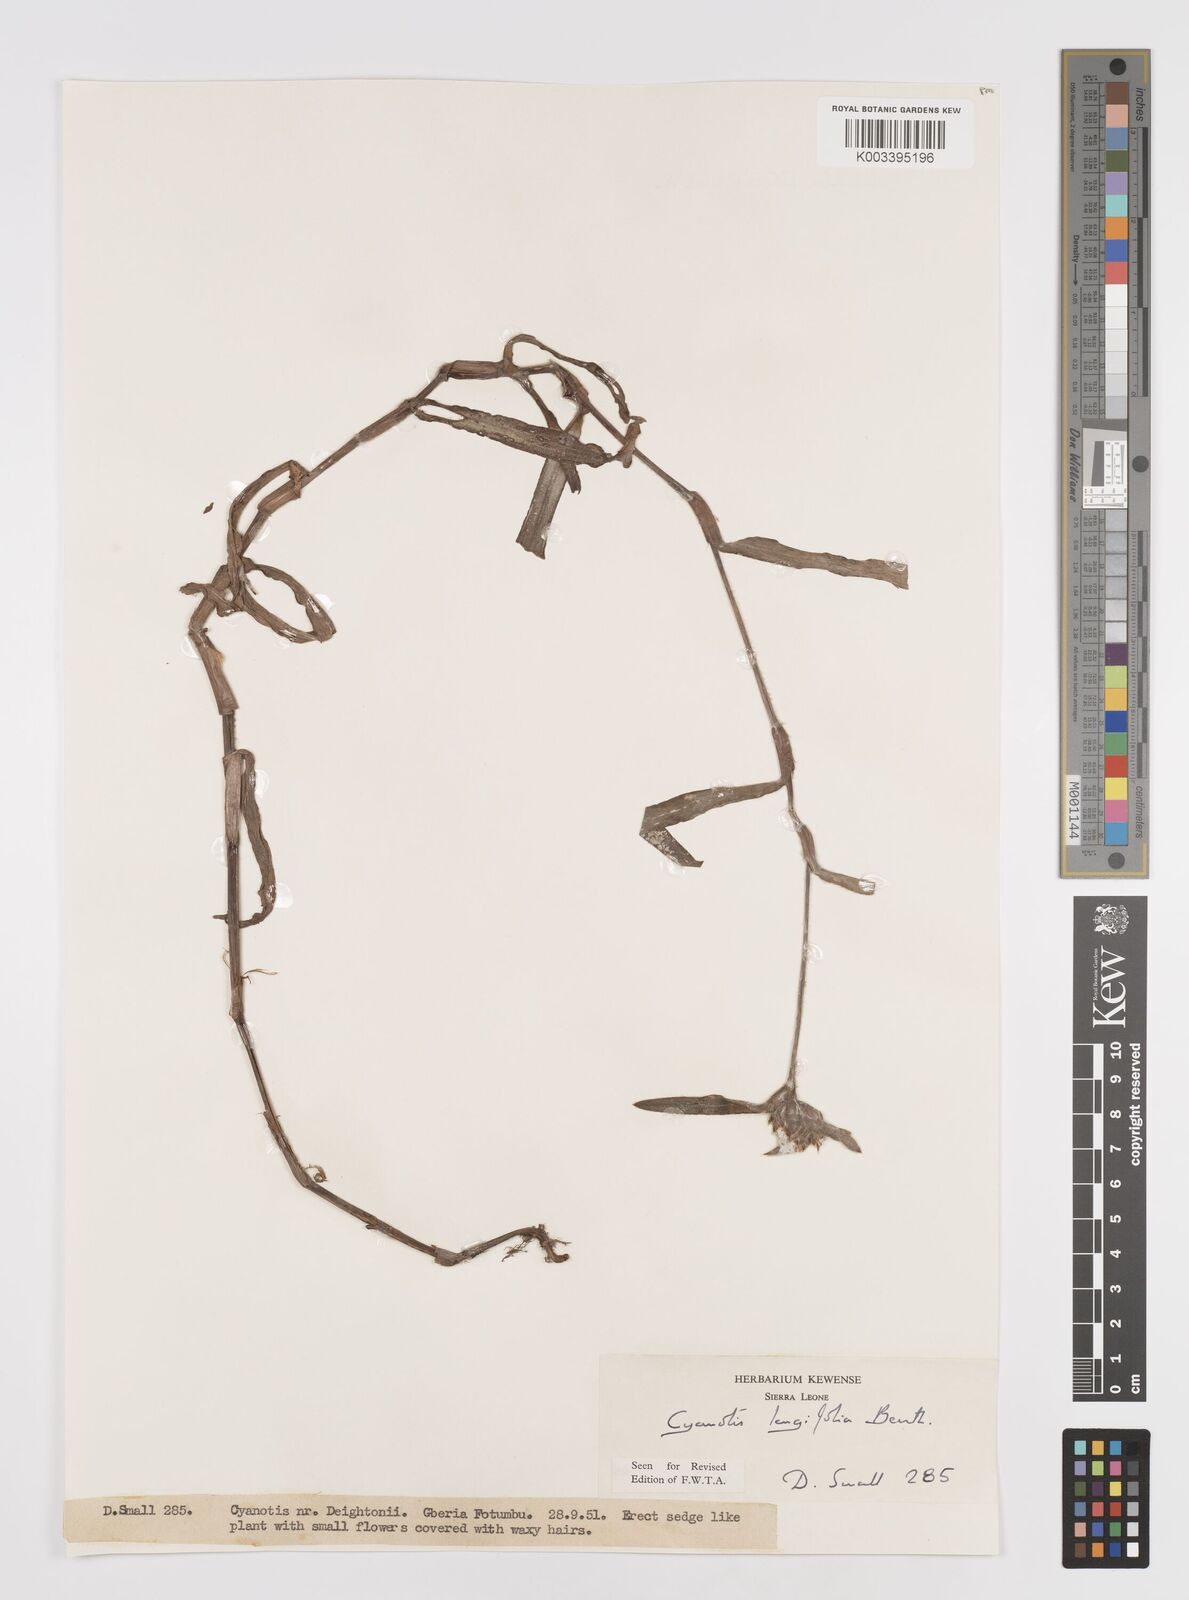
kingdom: Plantae
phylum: Tracheophyta
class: Liliopsida
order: Commelinales
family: Commelinaceae
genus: Cyanotis
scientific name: Cyanotis
